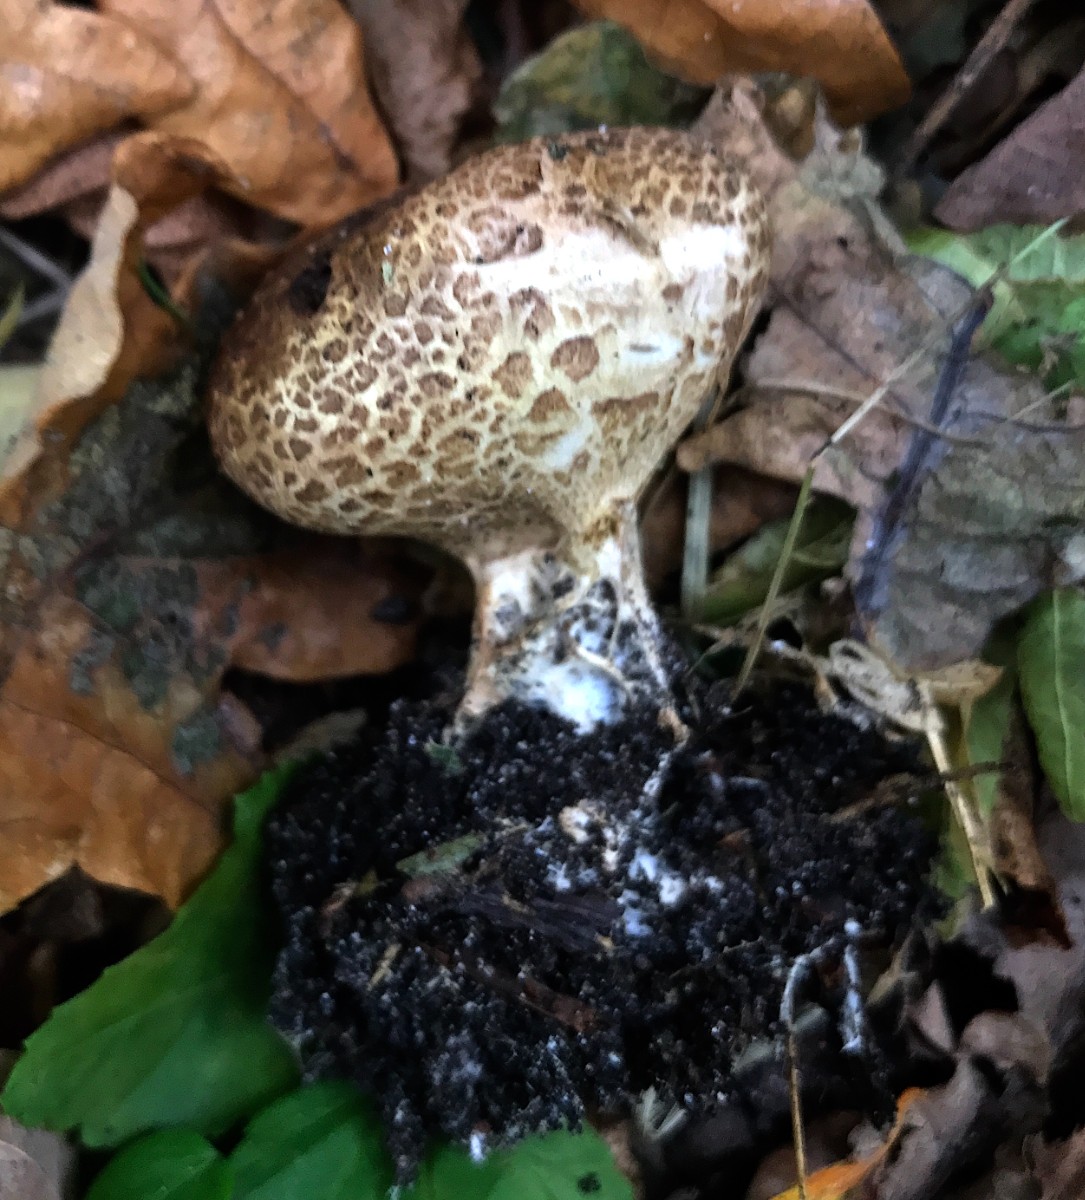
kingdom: Fungi
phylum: Basidiomycota
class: Agaricomycetes
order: Boletales
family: Sclerodermataceae
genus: Scleroderma
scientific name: Scleroderma verrucosum
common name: stilket bruskbold
